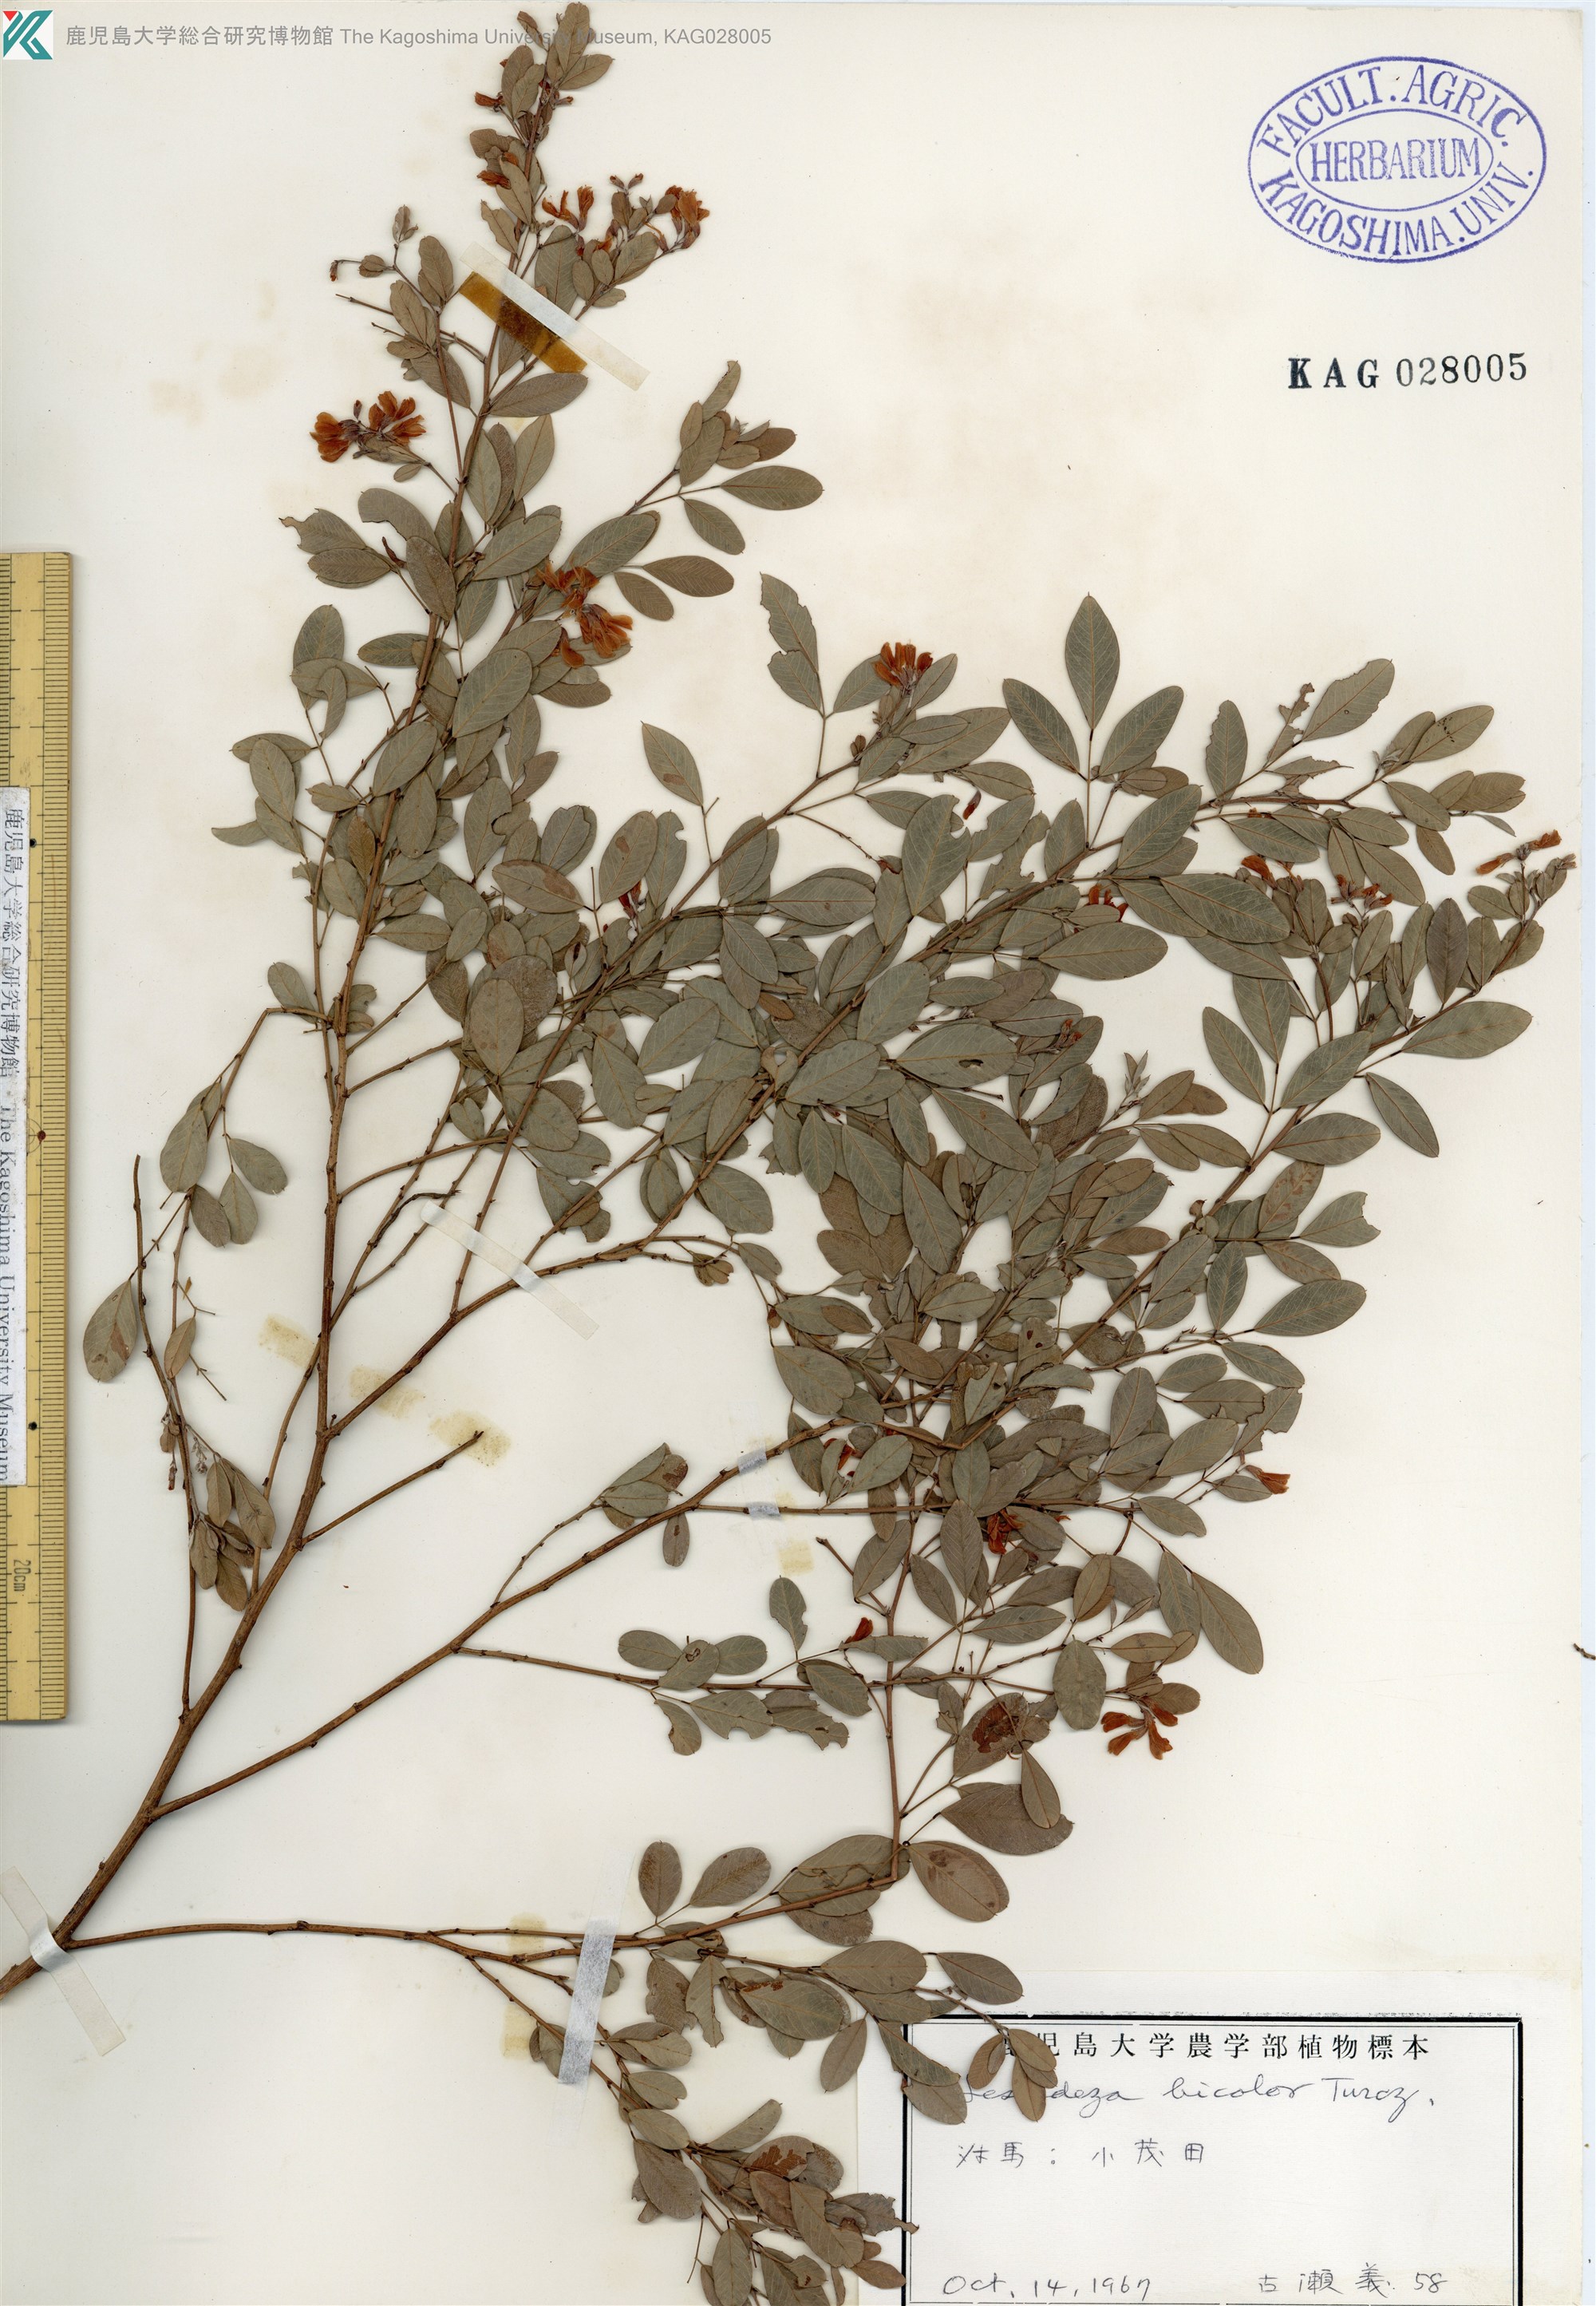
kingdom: Plantae
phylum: Tracheophyta
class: Magnoliopsida
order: Fabales
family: Fabaceae
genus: Lespedeza
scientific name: Lespedeza bicolor
